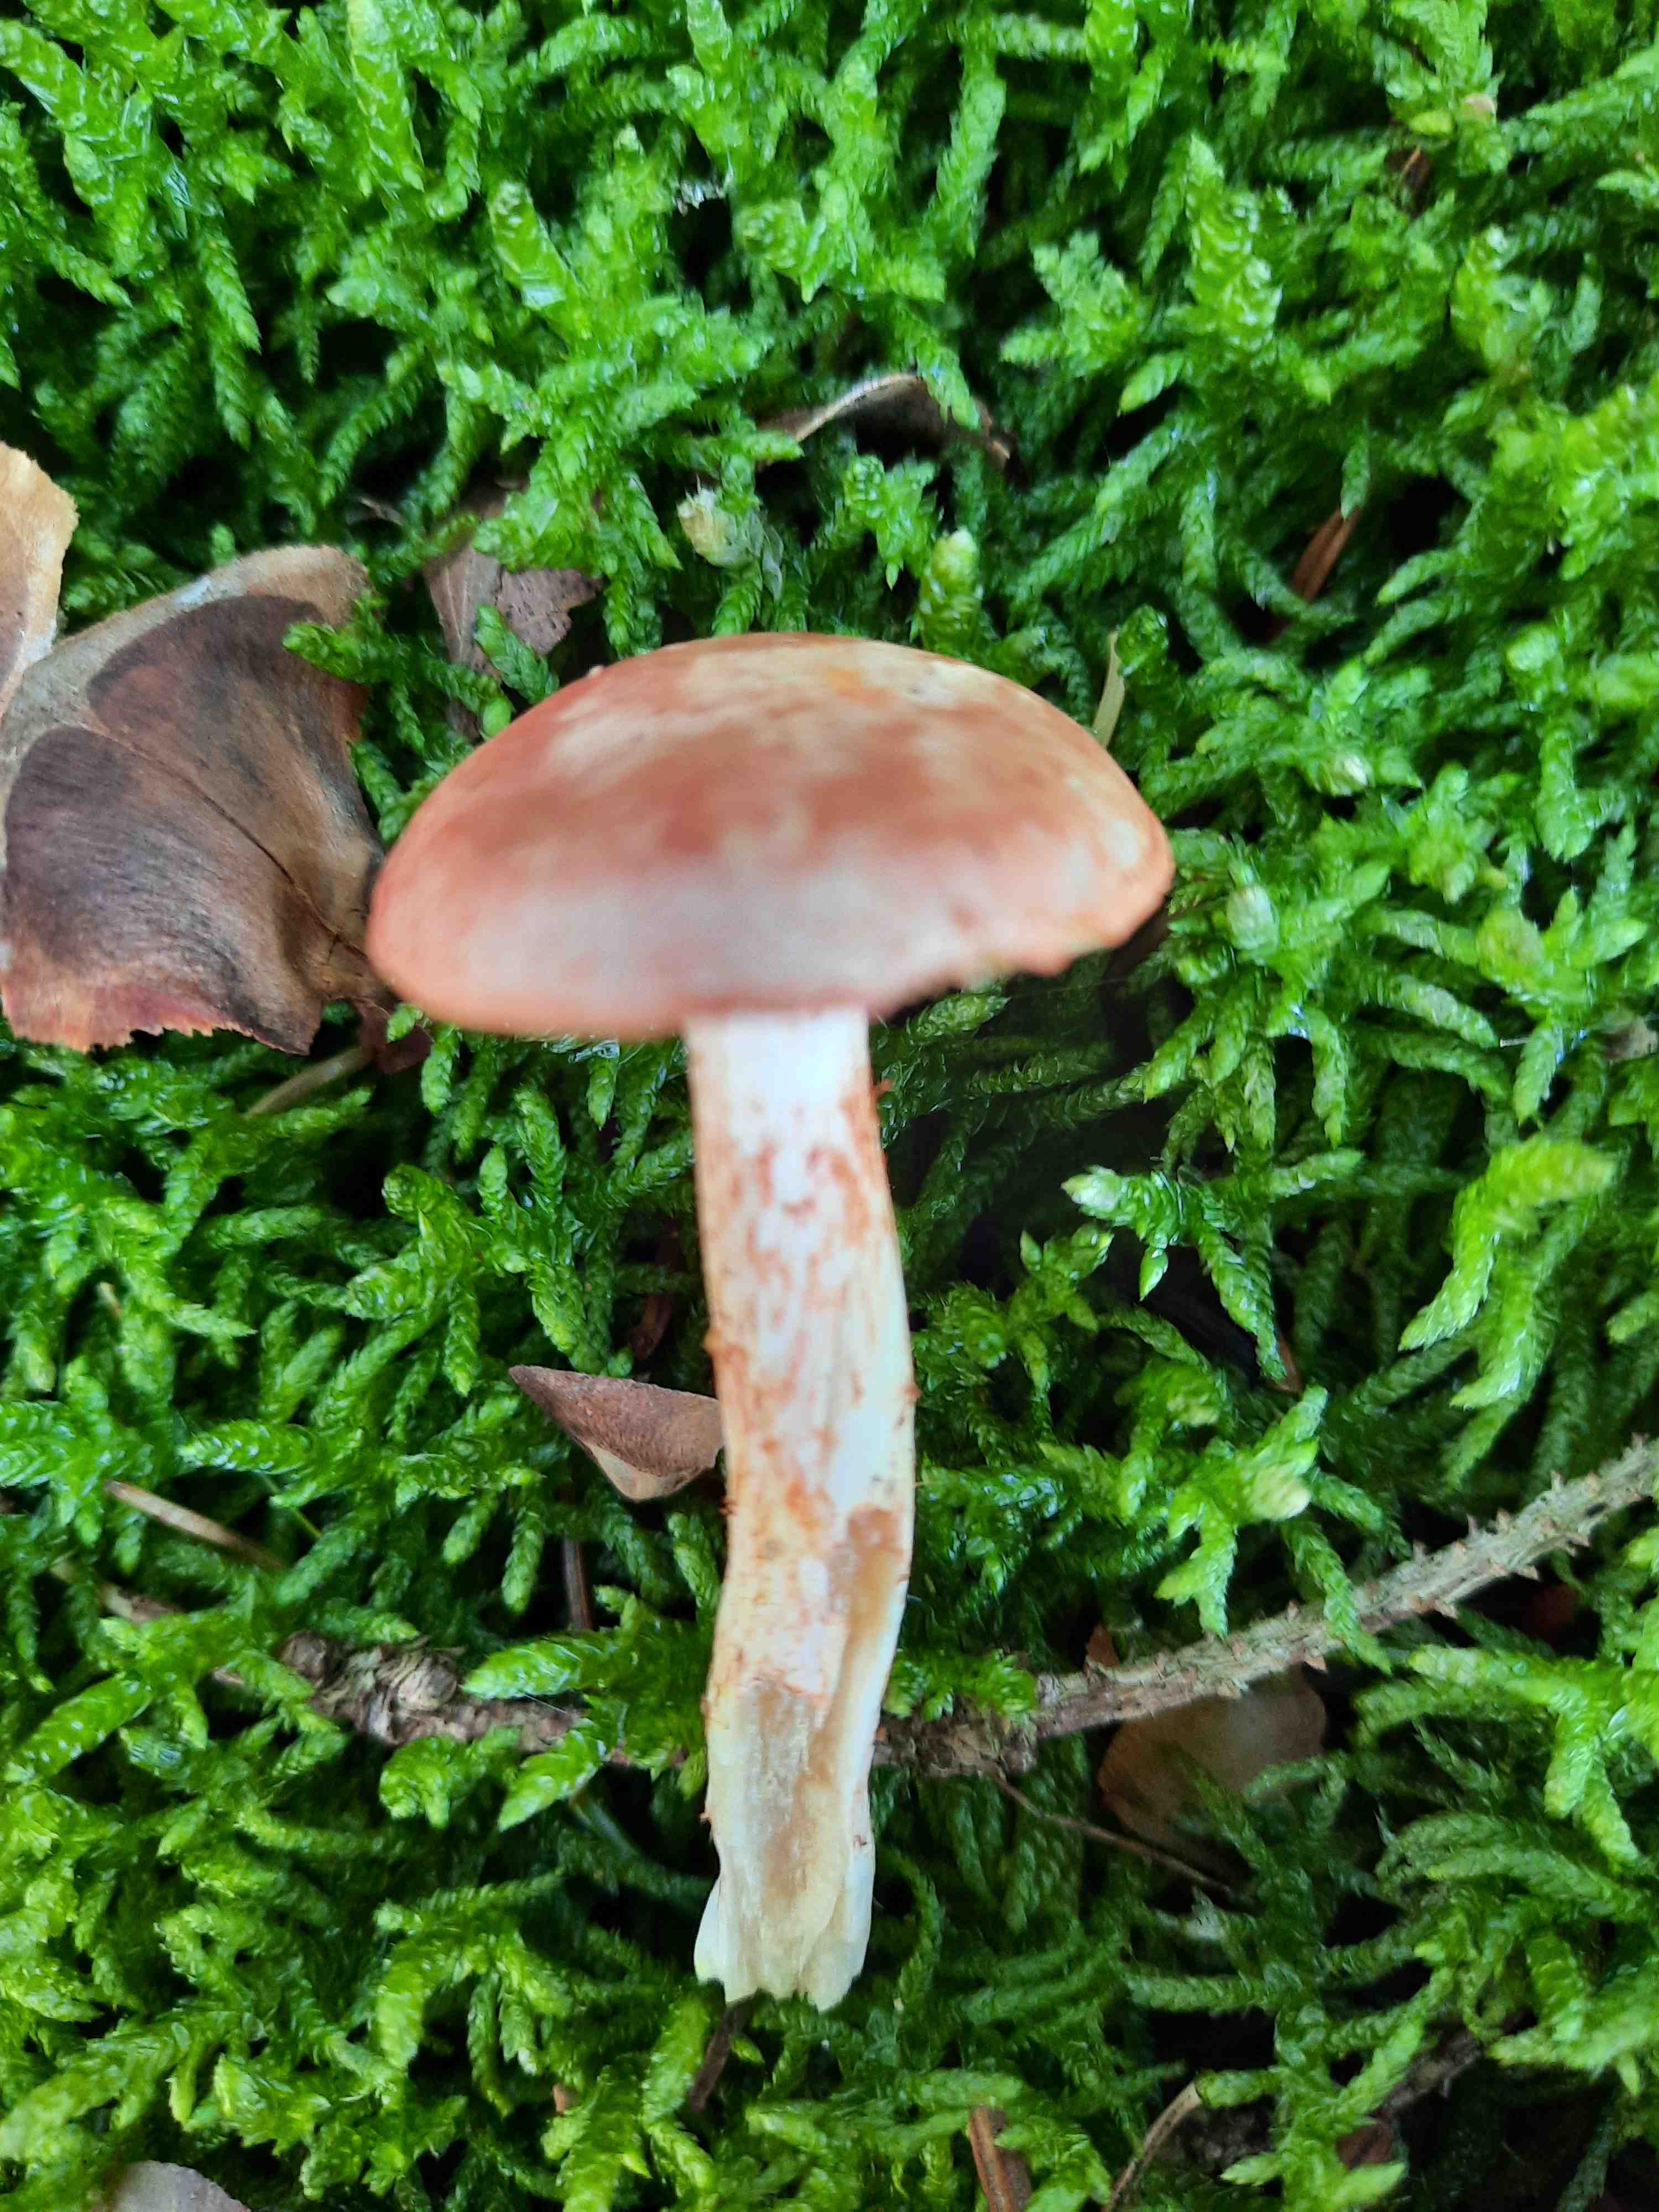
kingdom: Fungi
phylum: Basidiomycota
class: Agaricomycetes
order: Agaricales
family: Cortinariaceae
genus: Cortinarius
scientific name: Cortinarius bolaris
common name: cinnoberskællet slørhat
